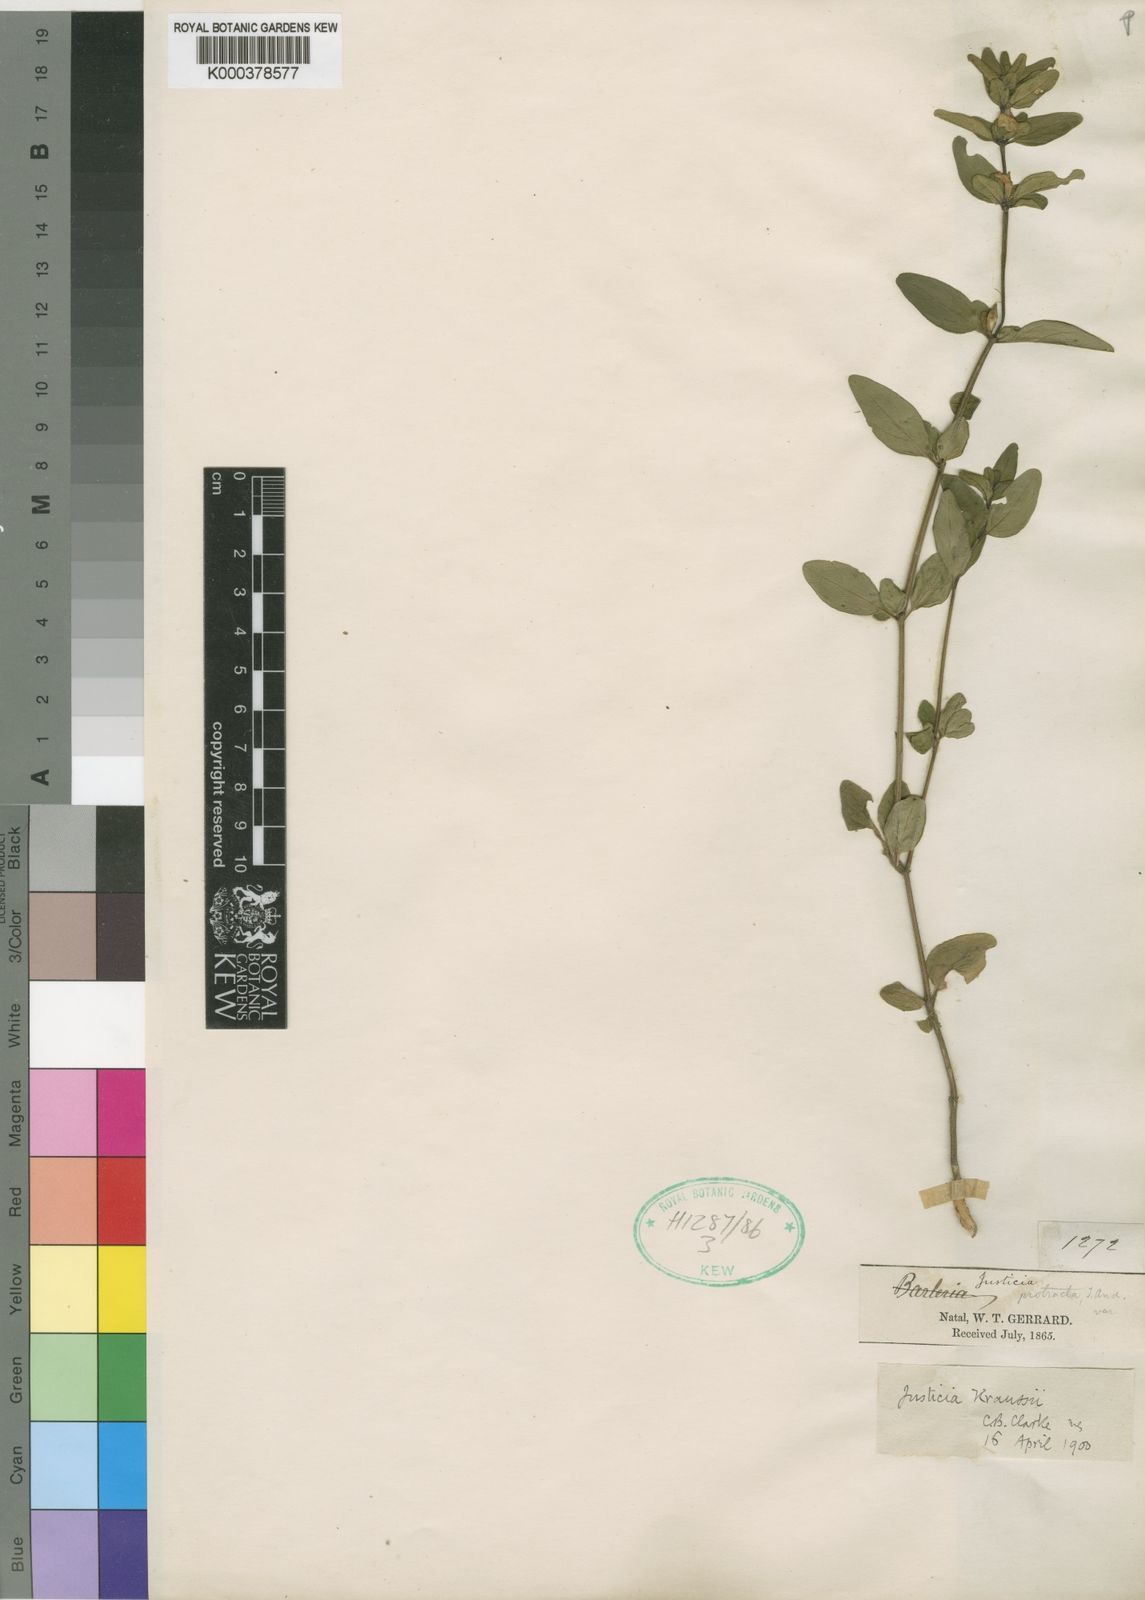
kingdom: Plantae
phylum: Tracheophyta
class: Magnoliopsida
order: Lamiales
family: Acanthaceae
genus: Justicia
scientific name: Justicia protracta
